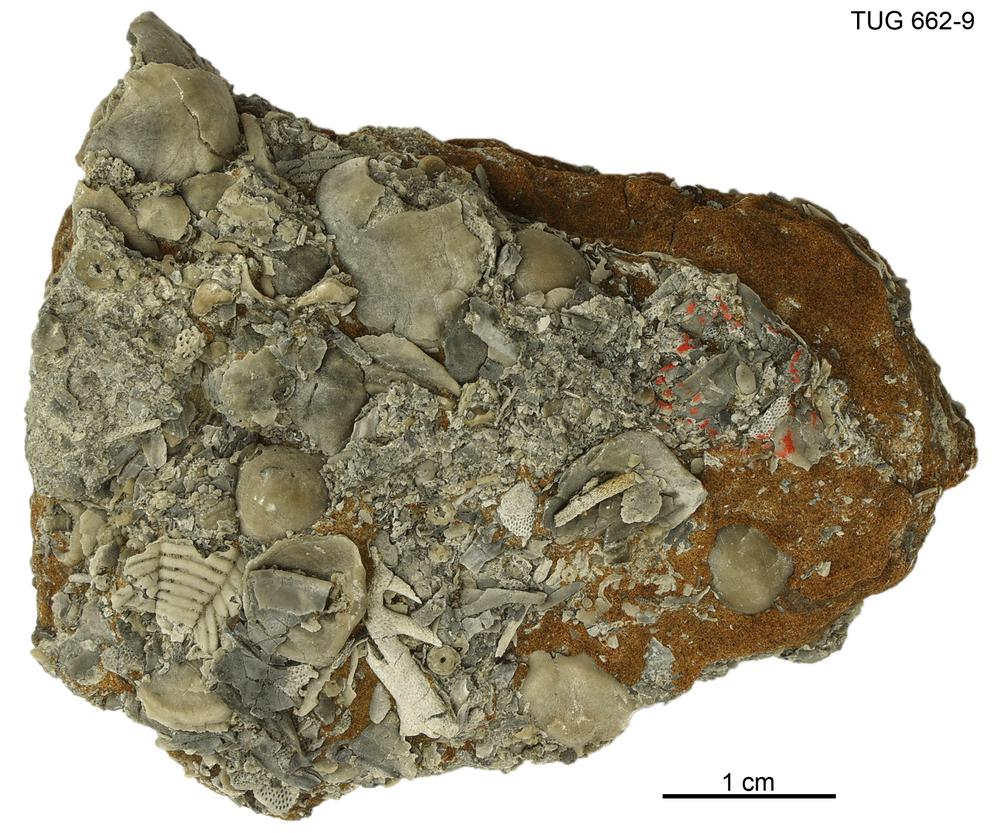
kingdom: Animalia
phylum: Brachiopoda
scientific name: Brachiopoda
